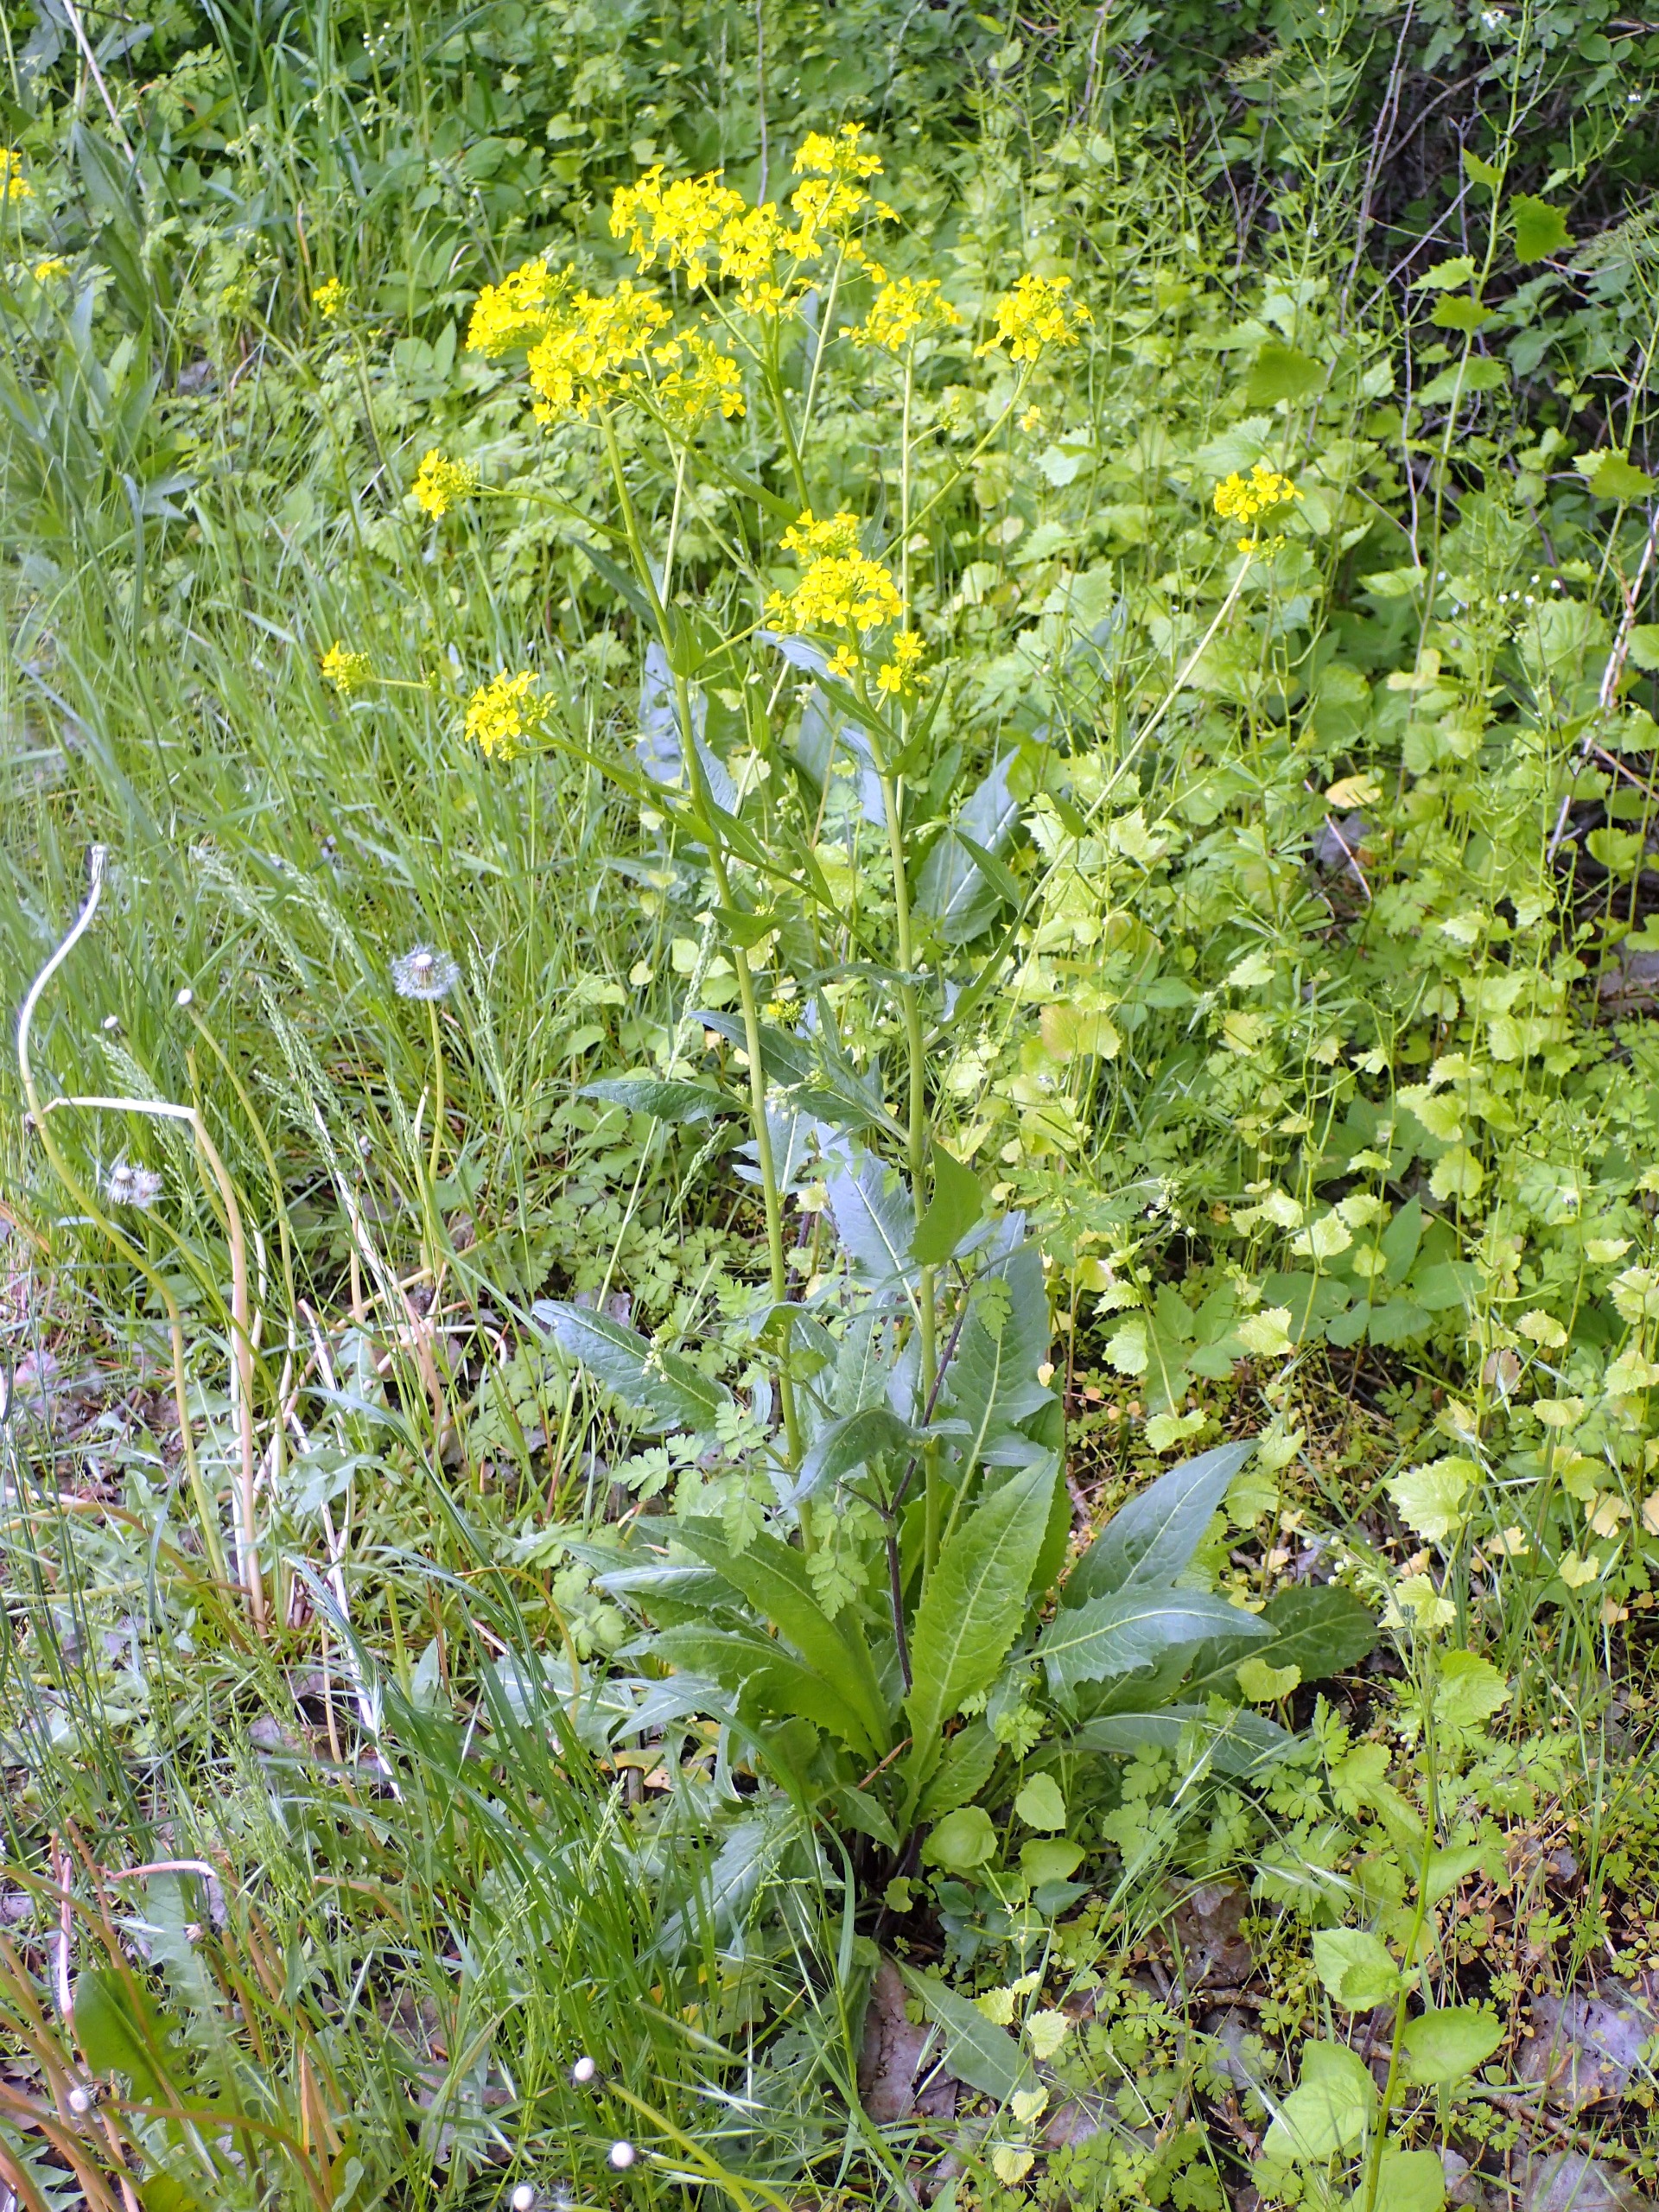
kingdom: Plantae
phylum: Tracheophyta
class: Magnoliopsida
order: Brassicales
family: Brassicaceae
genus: Bunias
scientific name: Bunias orientalis
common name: Takkeklap
